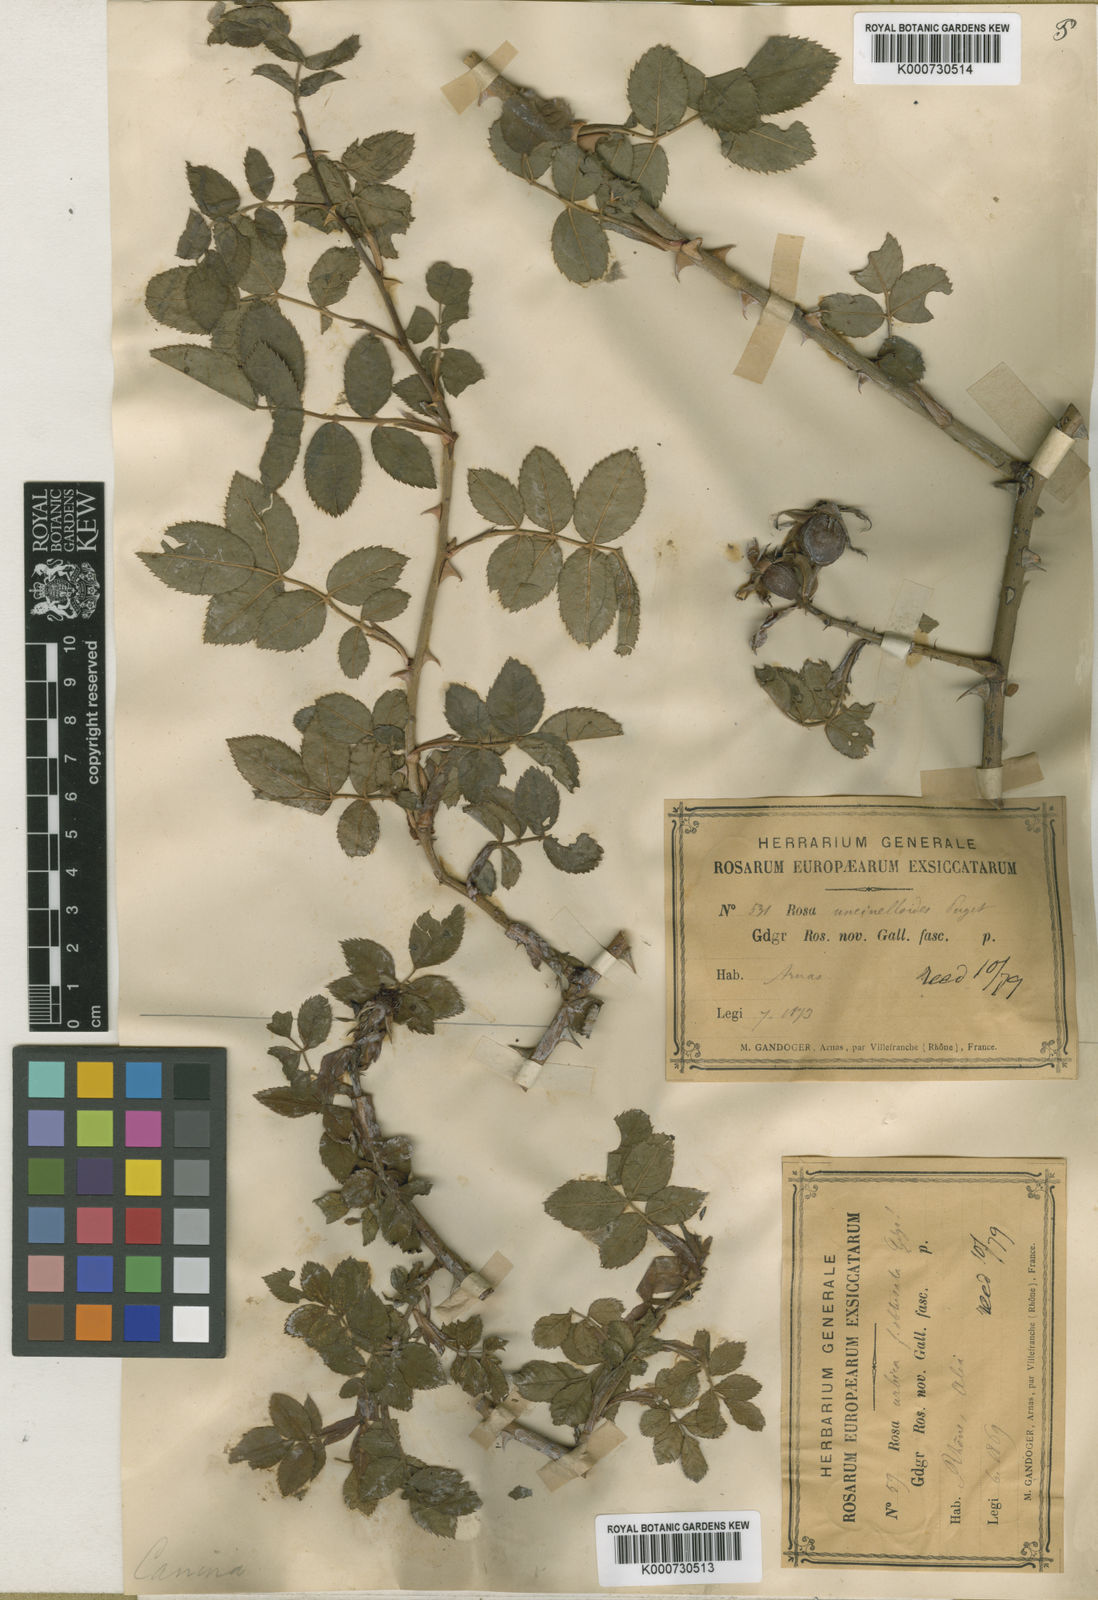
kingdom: Plantae
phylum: Tracheophyta
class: Magnoliopsida
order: Rosales
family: Rosaceae
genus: Rosa
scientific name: Rosa canina
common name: Dog rose
